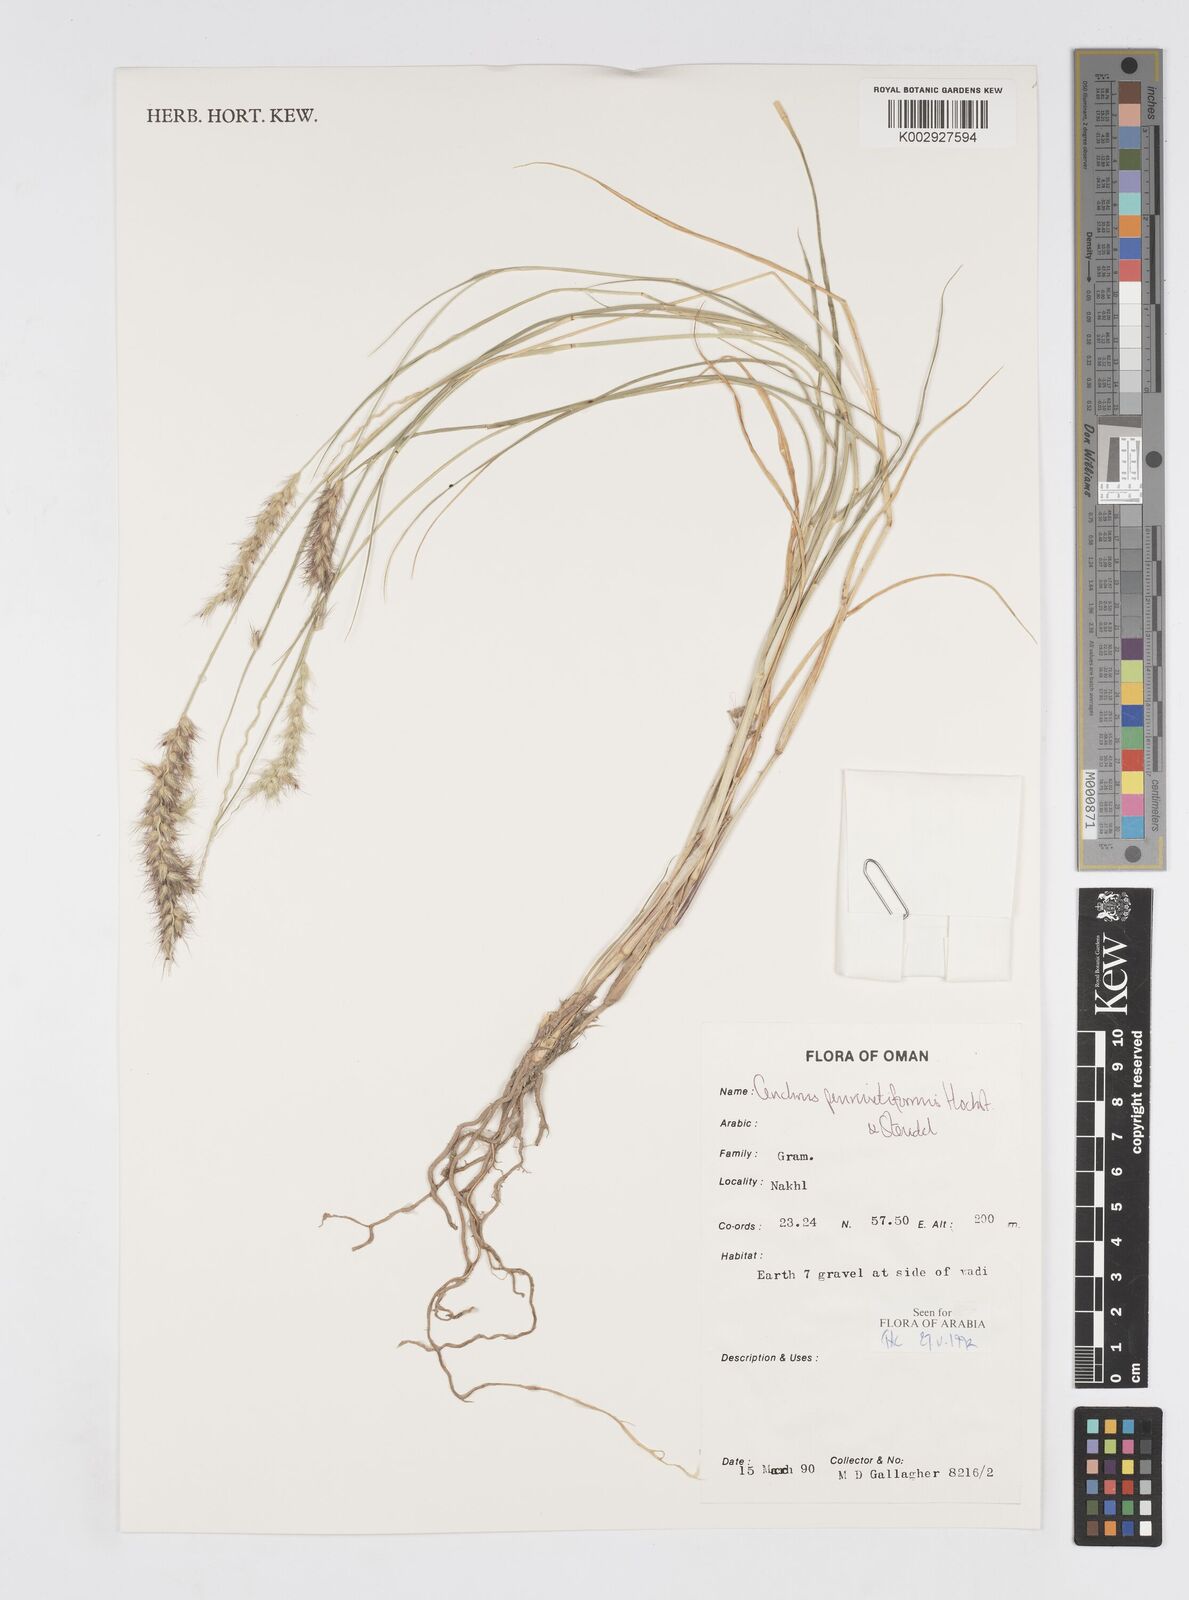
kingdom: Plantae
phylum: Tracheophyta
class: Liliopsida
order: Poales
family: Poaceae
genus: Cenchrus
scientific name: Cenchrus pennisetiformis
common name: Cloncurry
